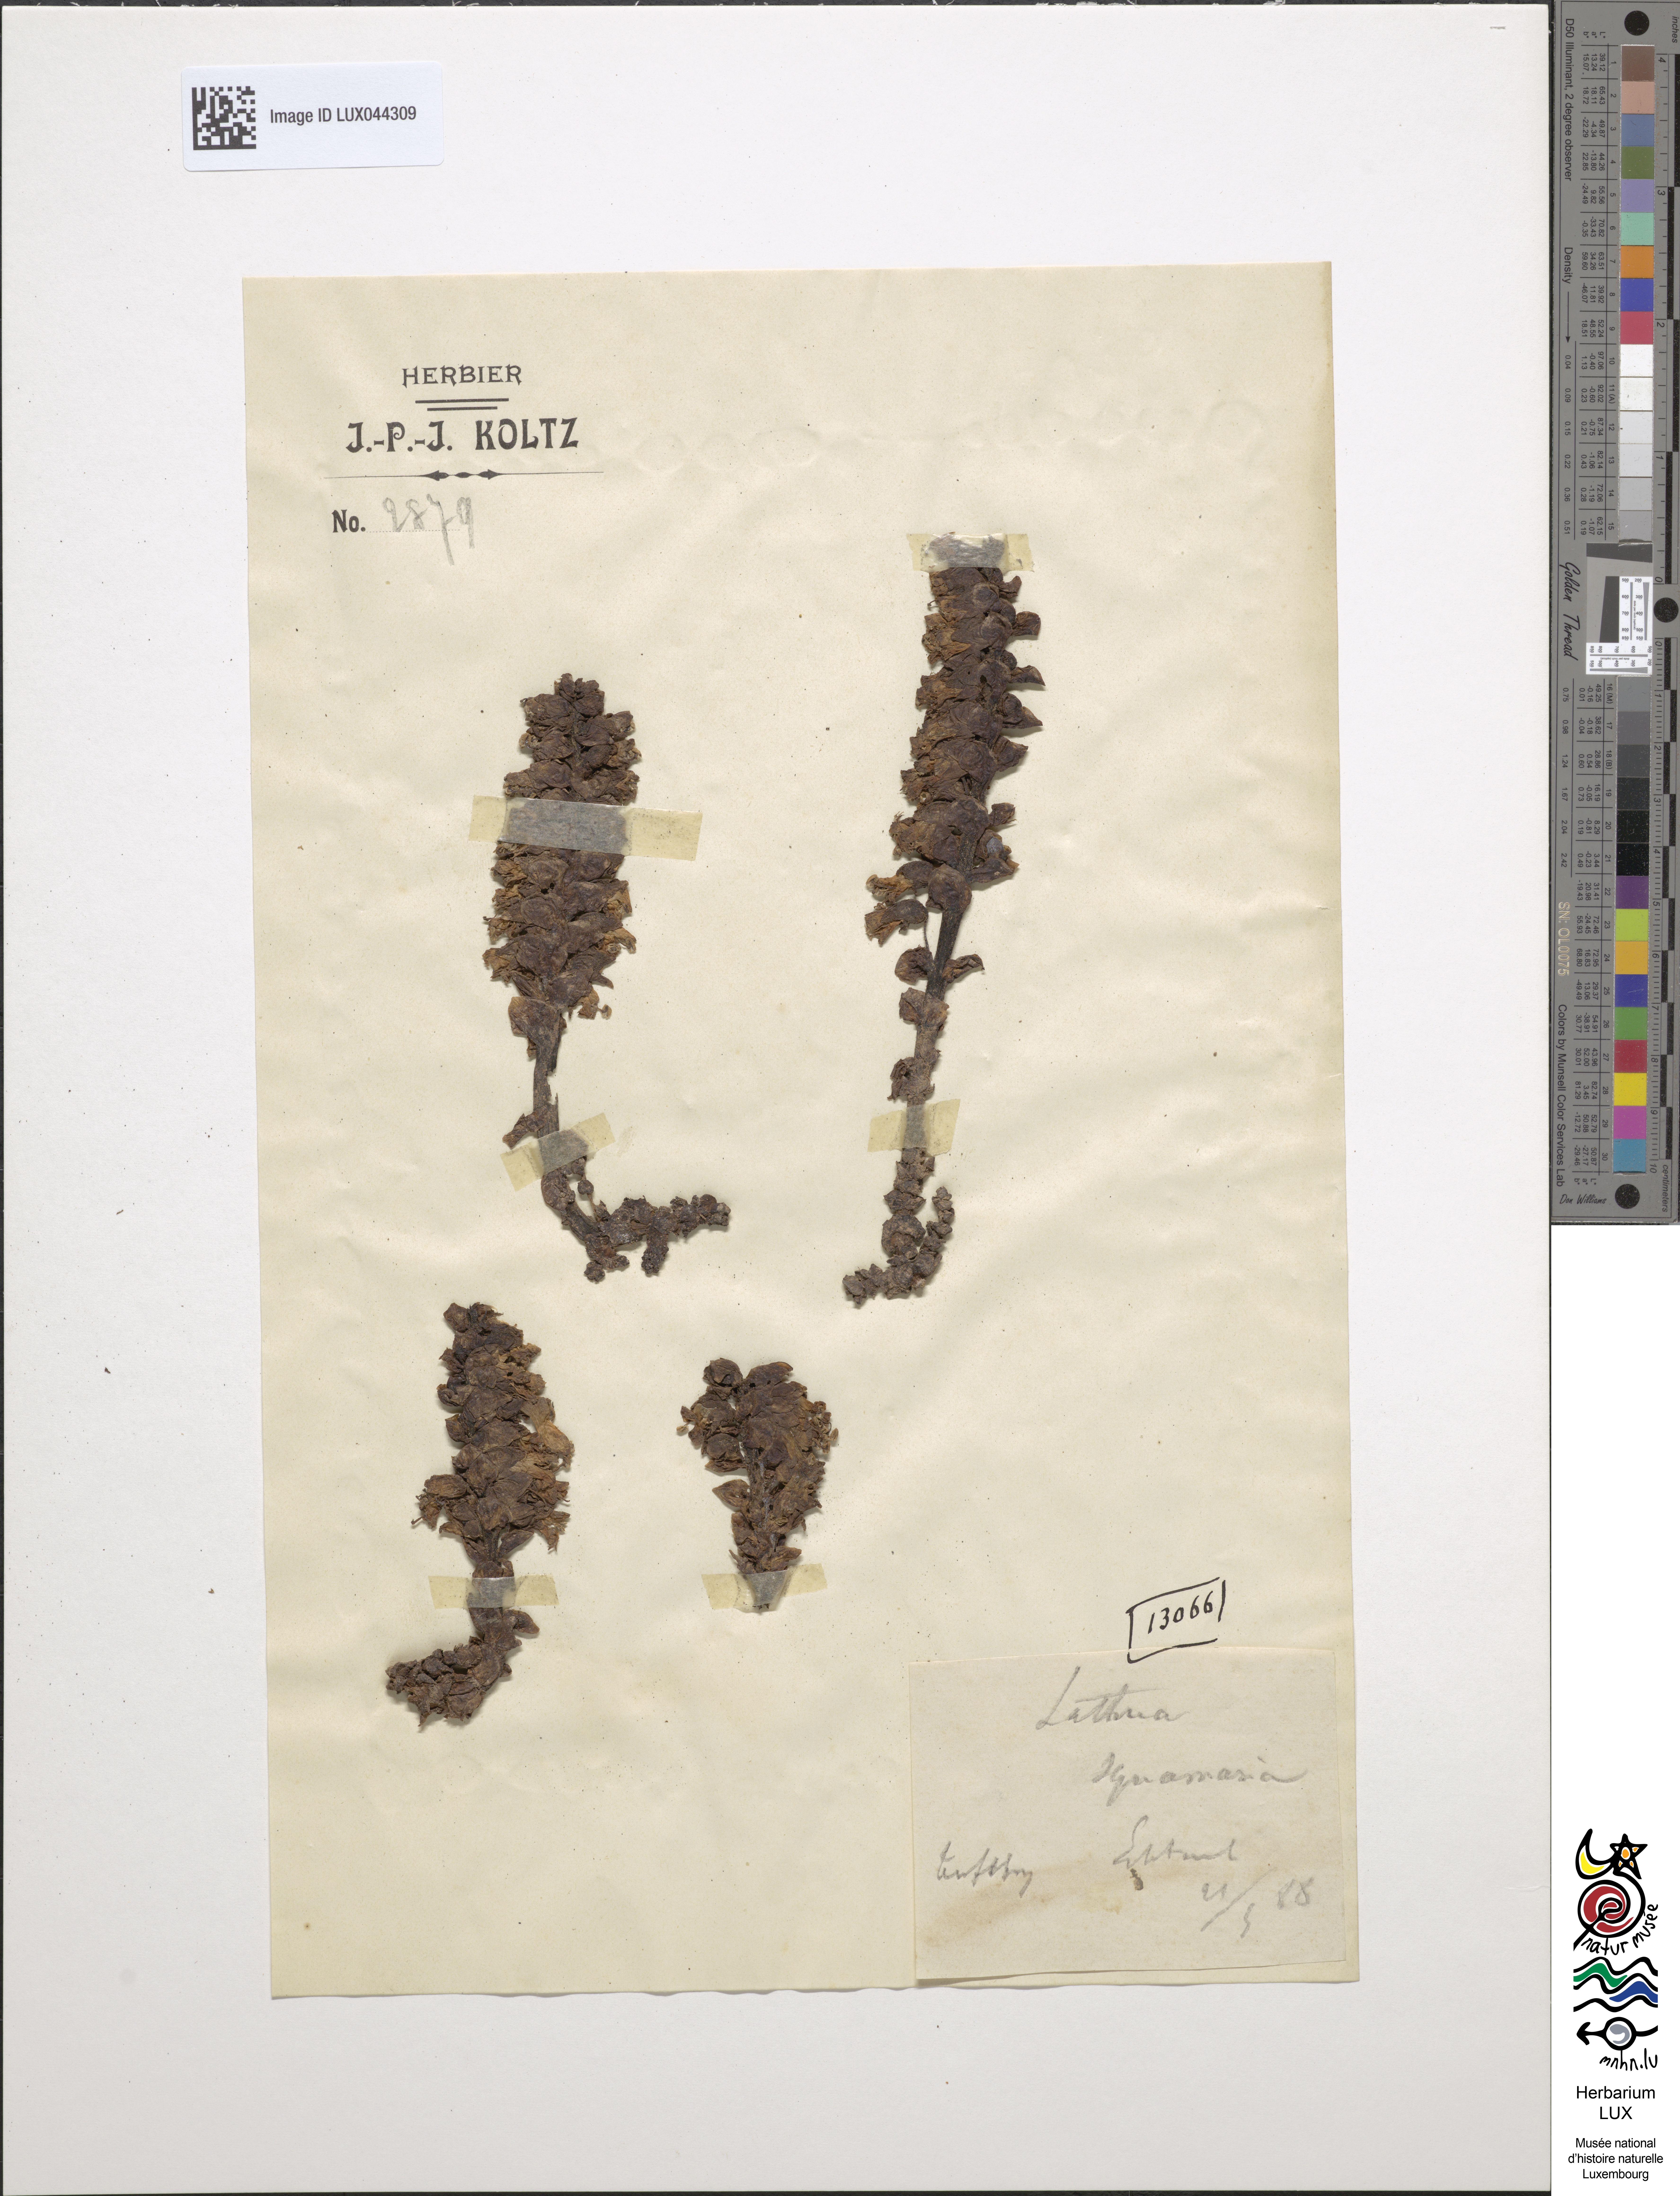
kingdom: Plantae
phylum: Tracheophyta
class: Magnoliopsida
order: Lamiales
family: Orobanchaceae
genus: Lathraea
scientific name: Lathraea squamaria
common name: Toothwort
